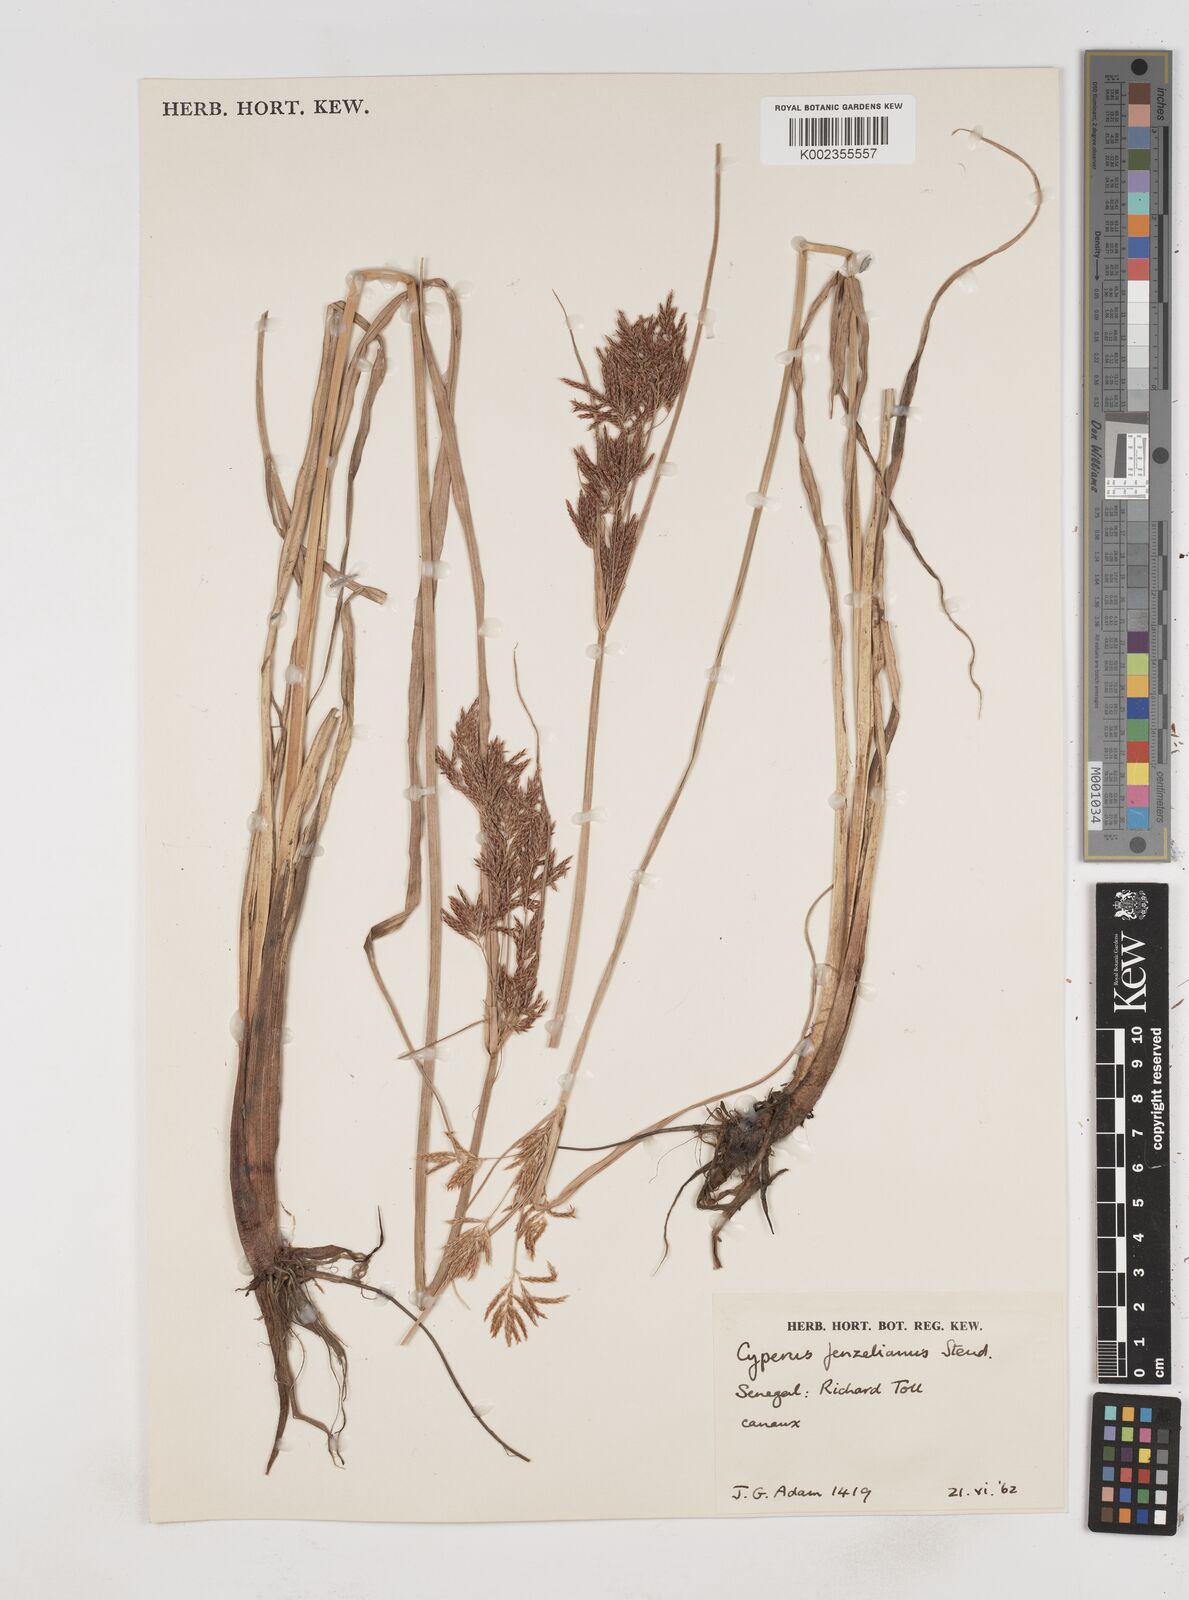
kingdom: Plantae
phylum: Tracheophyta
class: Liliopsida
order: Poales
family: Cyperaceae
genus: Cyperus
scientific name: Cyperus longus
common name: Galingale
